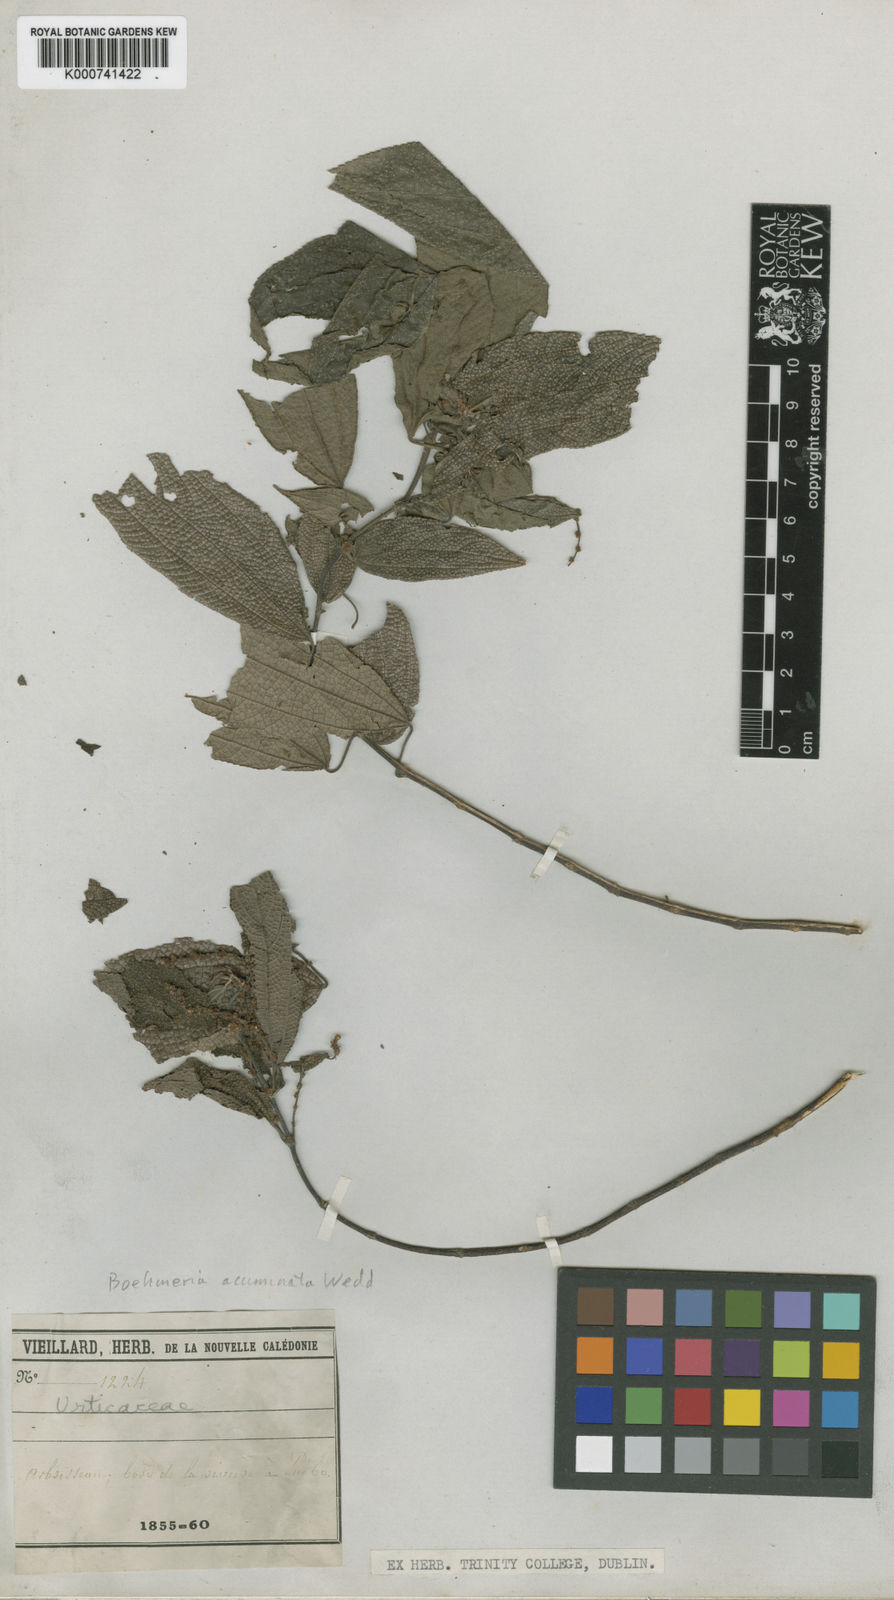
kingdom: Plantae
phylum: Tracheophyta
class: Magnoliopsida
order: Rosales
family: Urticaceae
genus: Cypholophus
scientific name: Cypholophus
